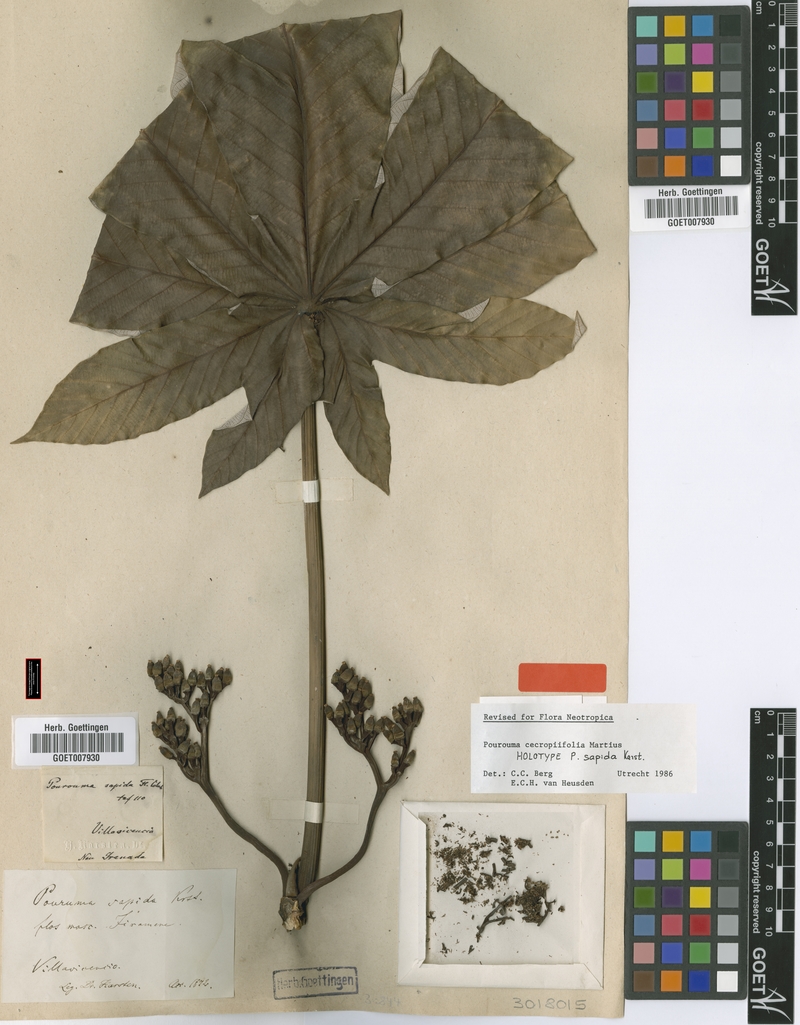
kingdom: Plantae
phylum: Tracheophyta
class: Magnoliopsida
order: Rosales
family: Urticaceae
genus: Pourouma
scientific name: Pourouma cecropiifolia
